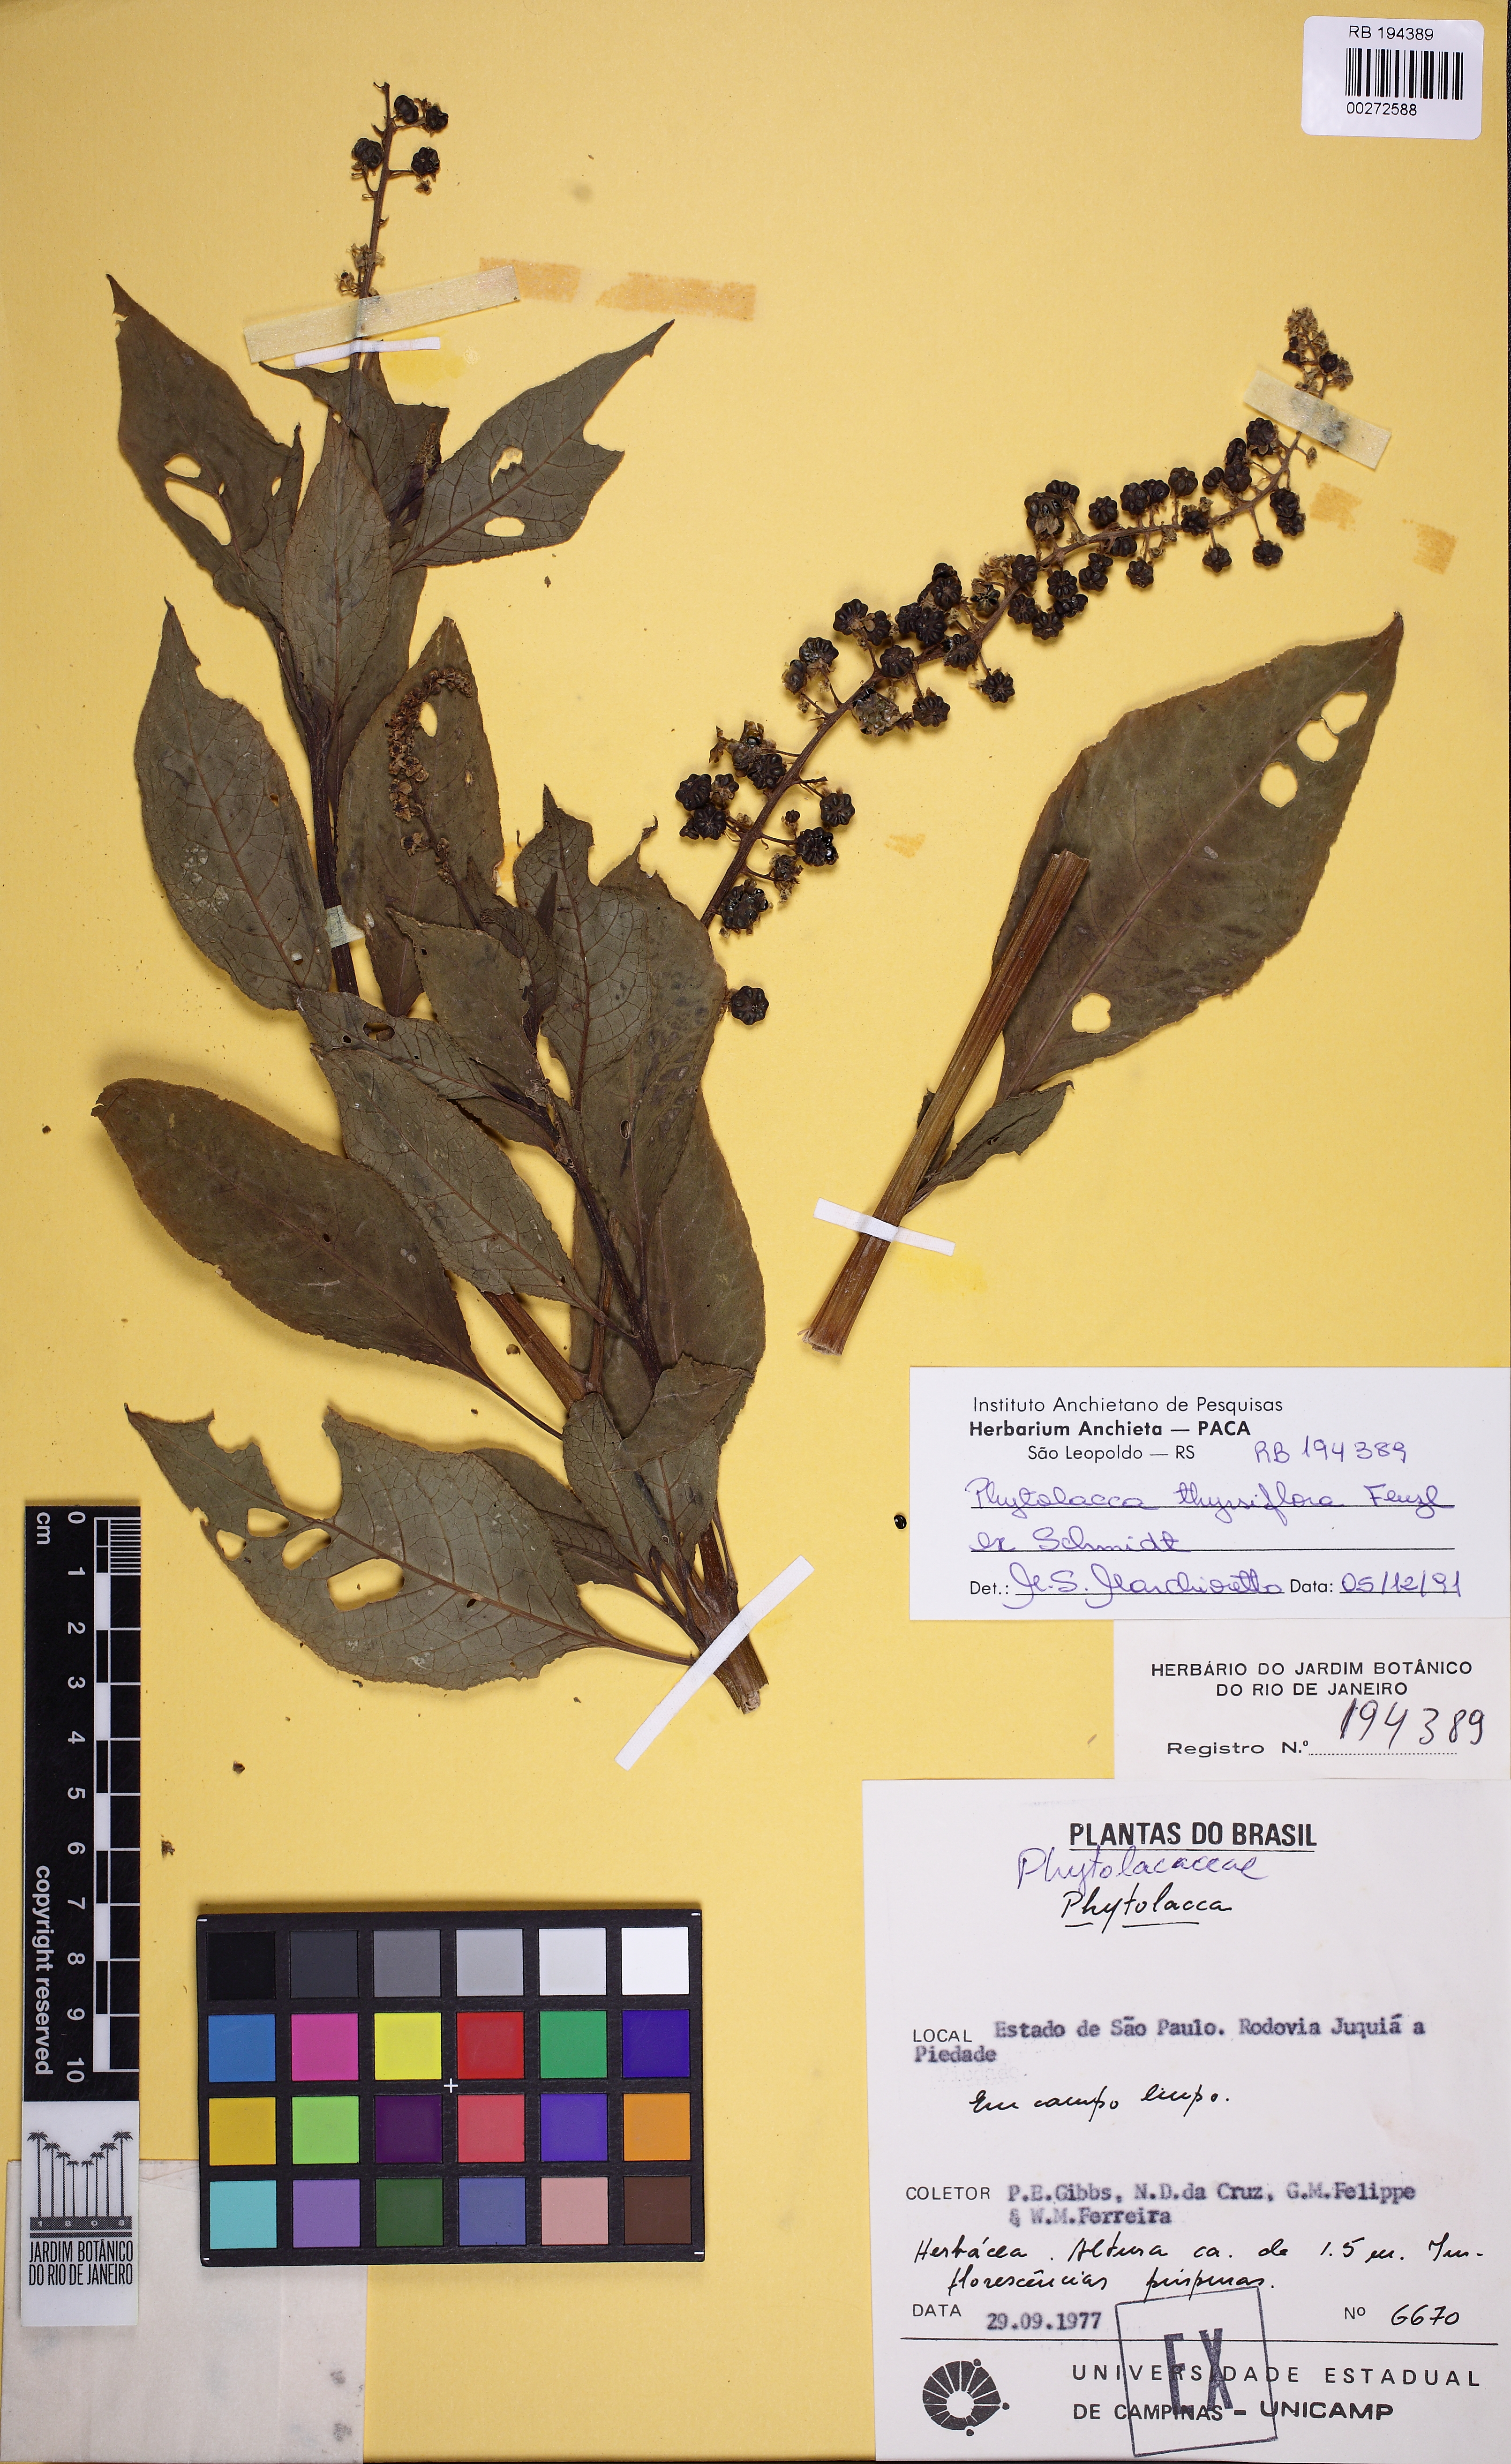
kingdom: Plantae
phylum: Tracheophyta
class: Magnoliopsida
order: Caryophyllales
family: Phytolaccaceae
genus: Phytolacca
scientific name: Phytolacca thyrsiflora
